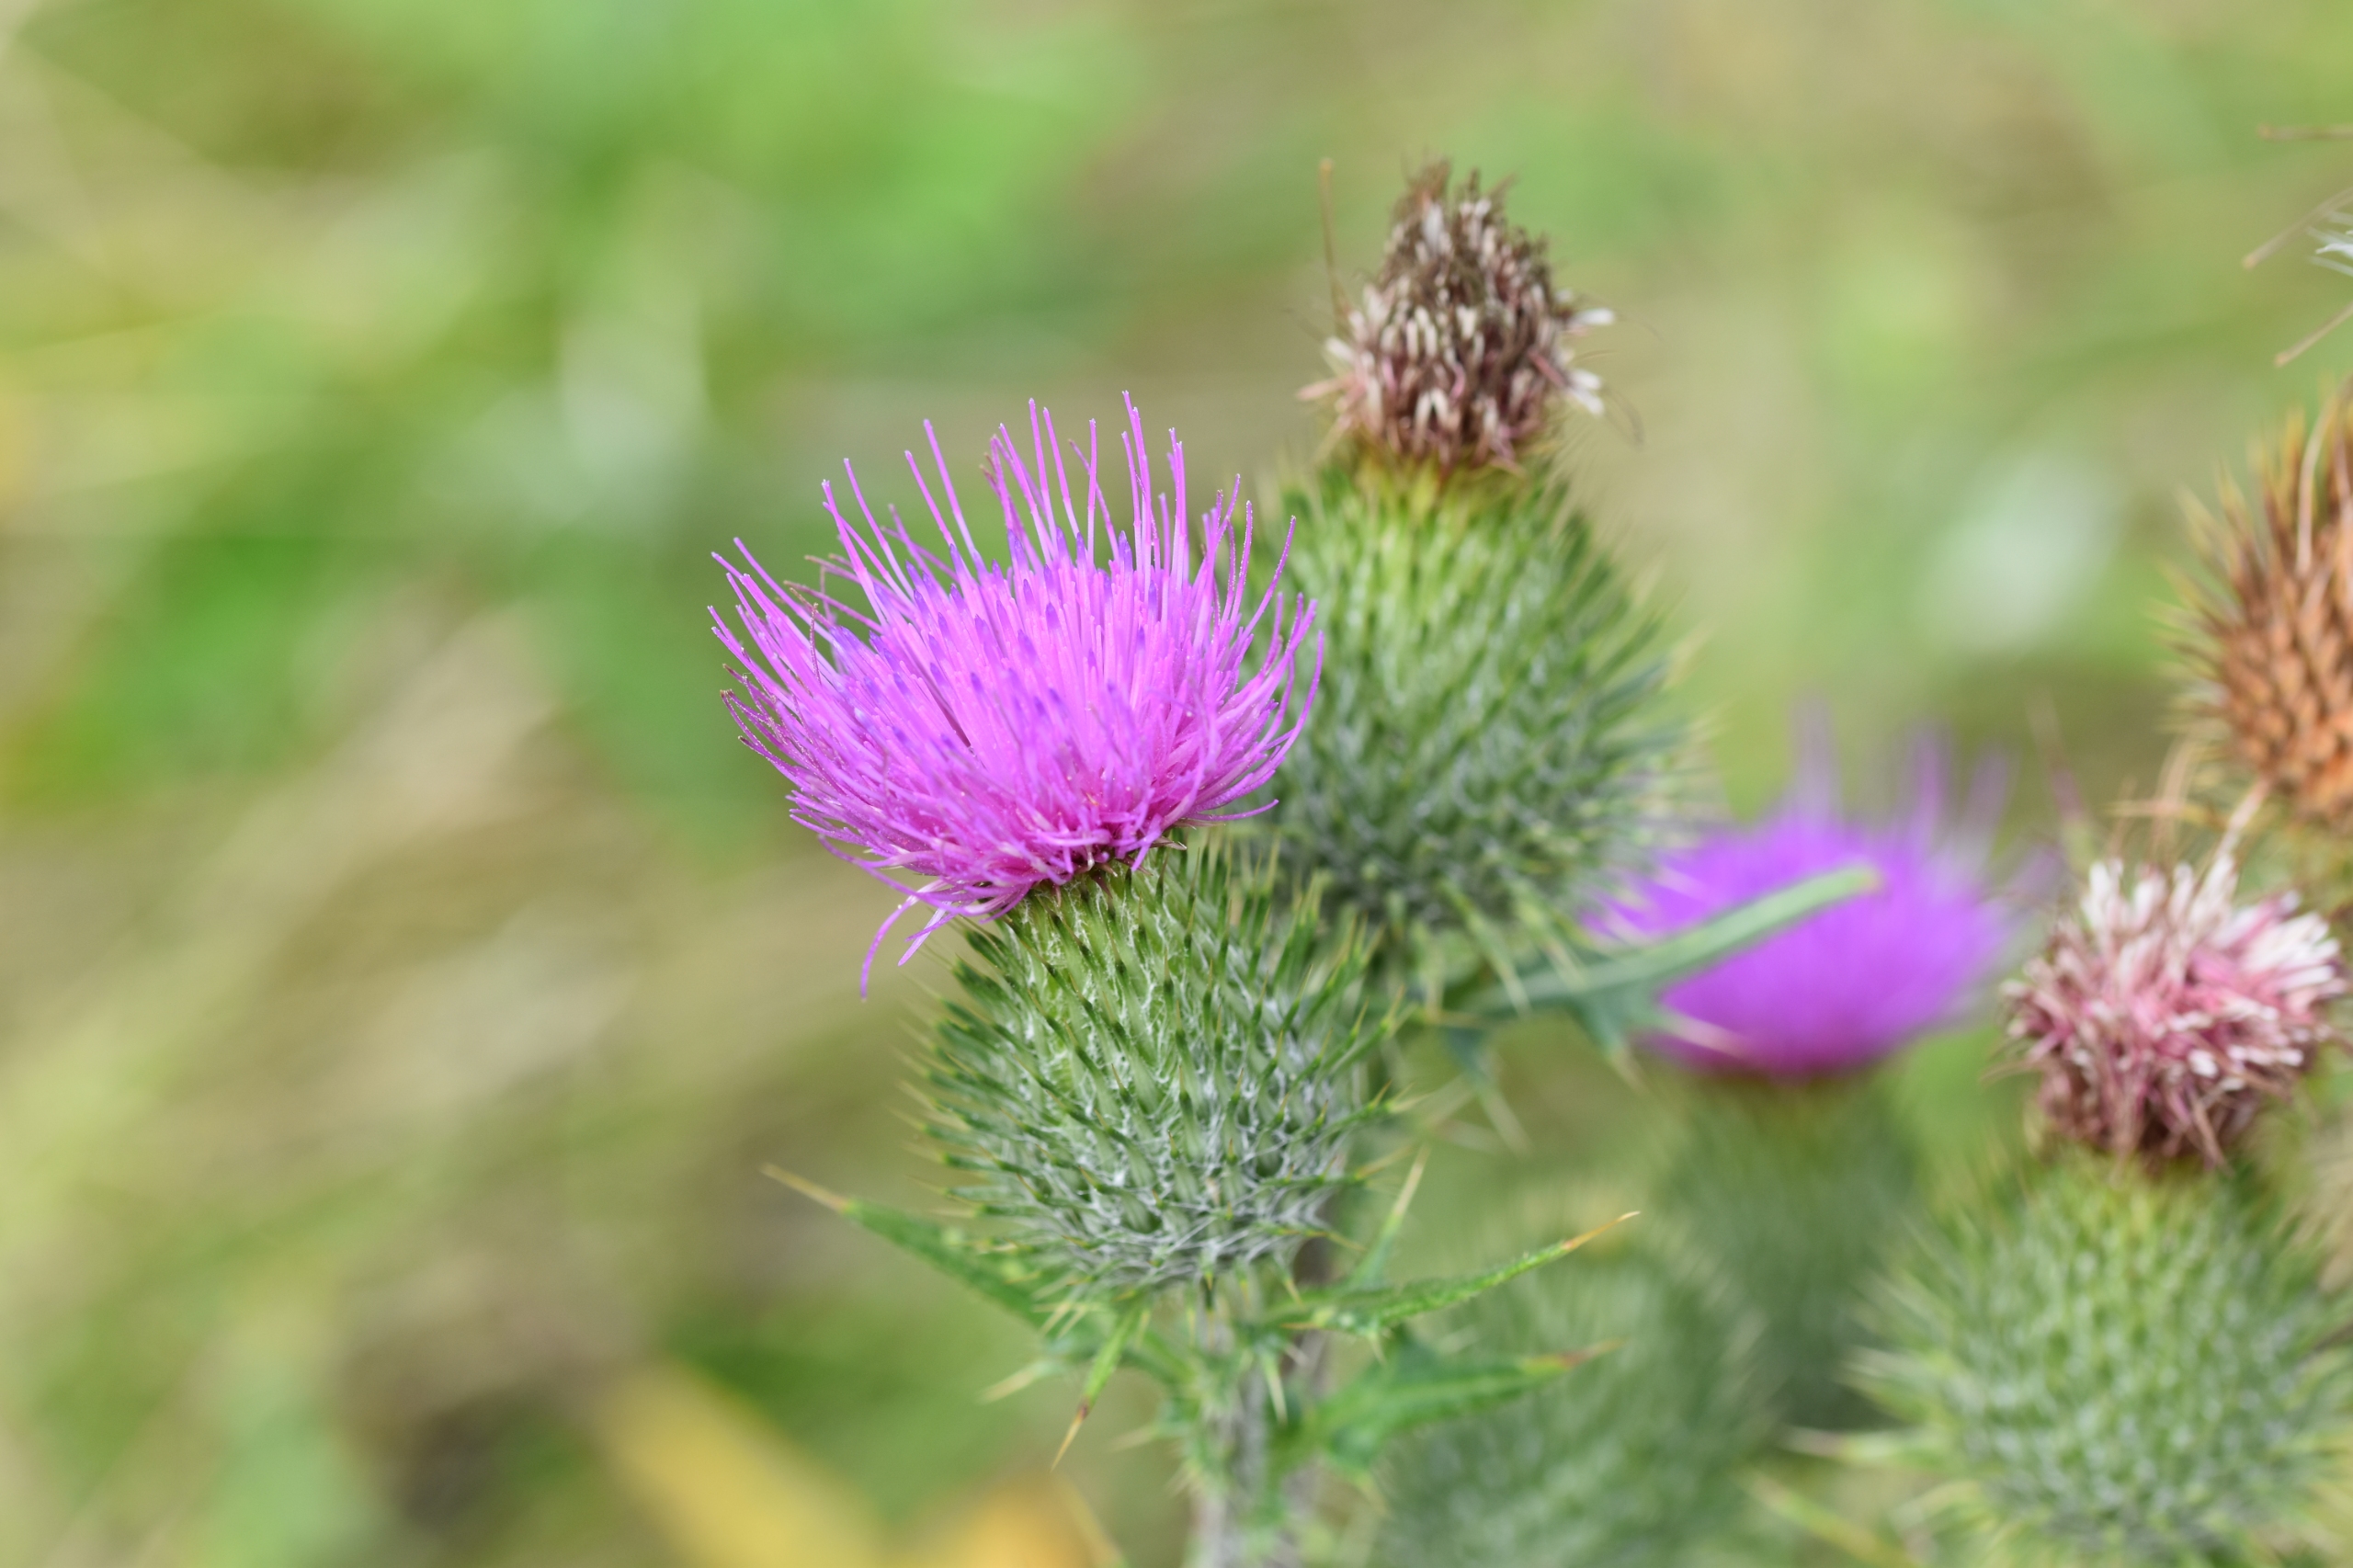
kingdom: Plantae
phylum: Tracheophyta
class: Magnoliopsida
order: Asterales
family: Asteraceae
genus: Cirsium
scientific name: Cirsium vulgare
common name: Horse-tidsel
